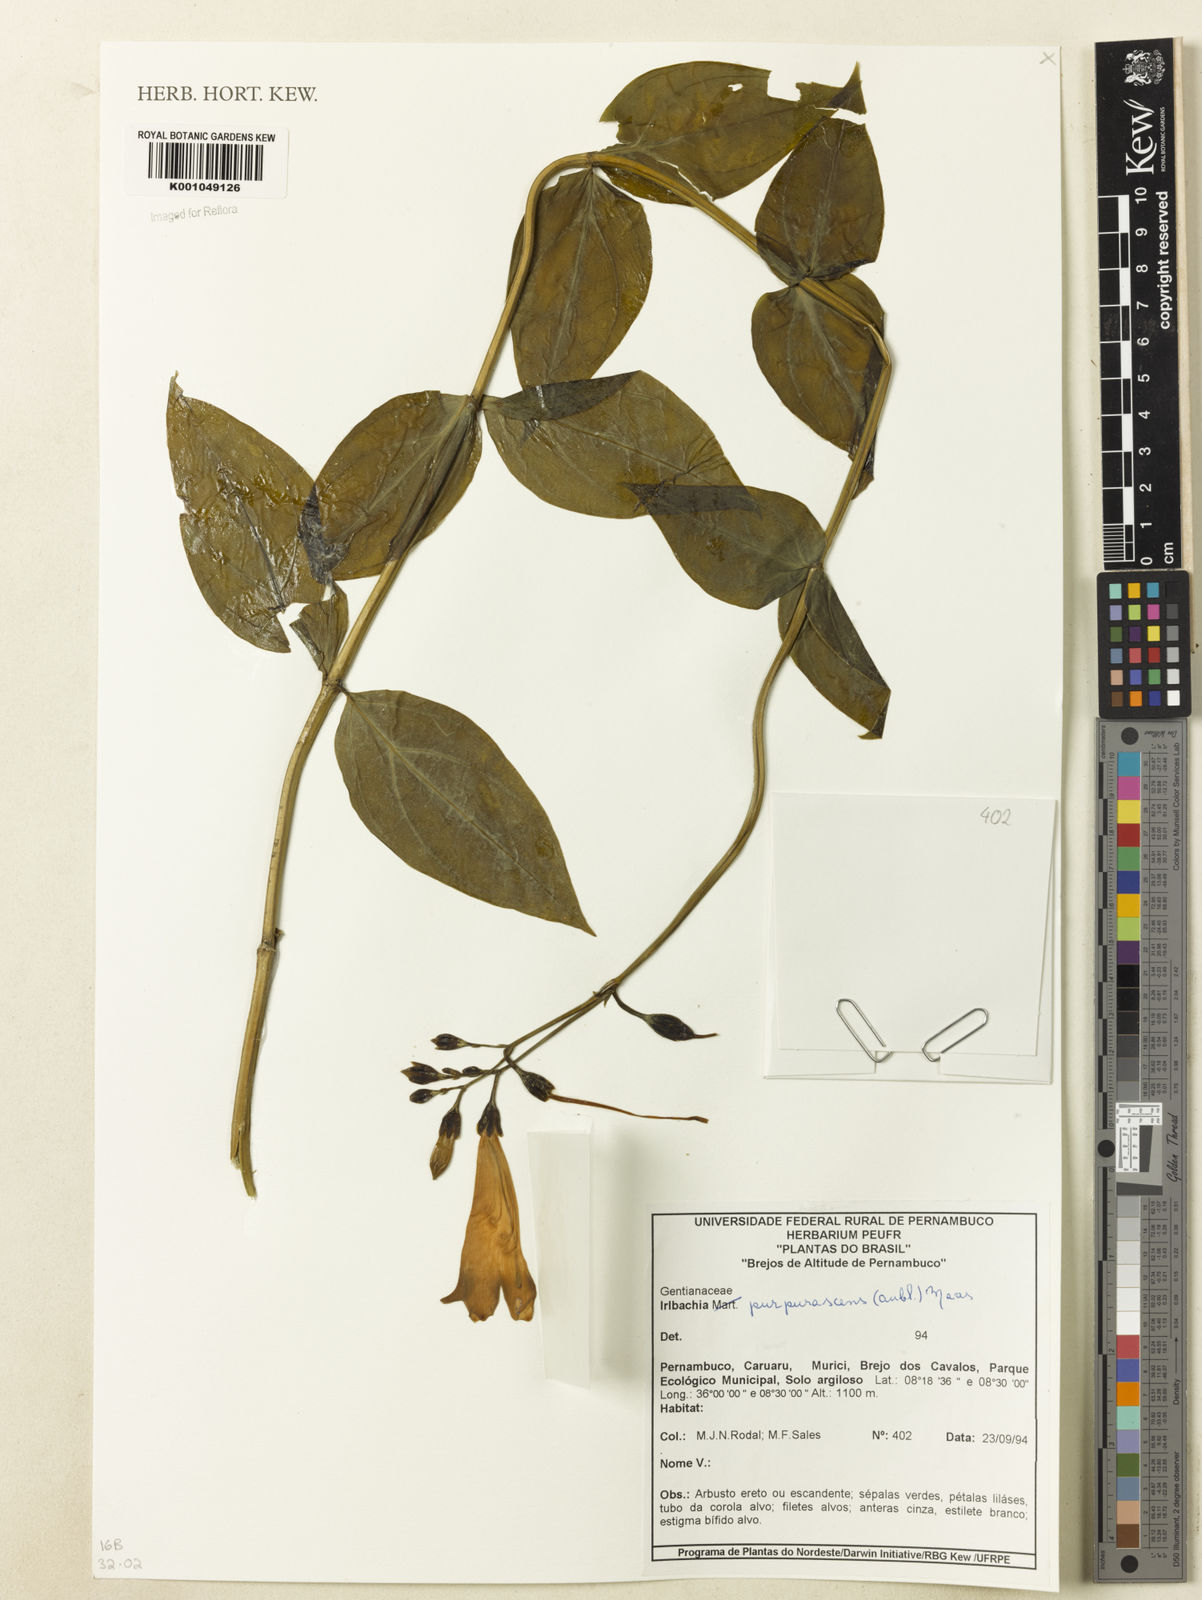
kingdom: Plantae
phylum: Tracheophyta
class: Magnoliopsida
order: Gentianales
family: Gentianaceae
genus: Chelonanthus
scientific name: Chelonanthus purpurascens
